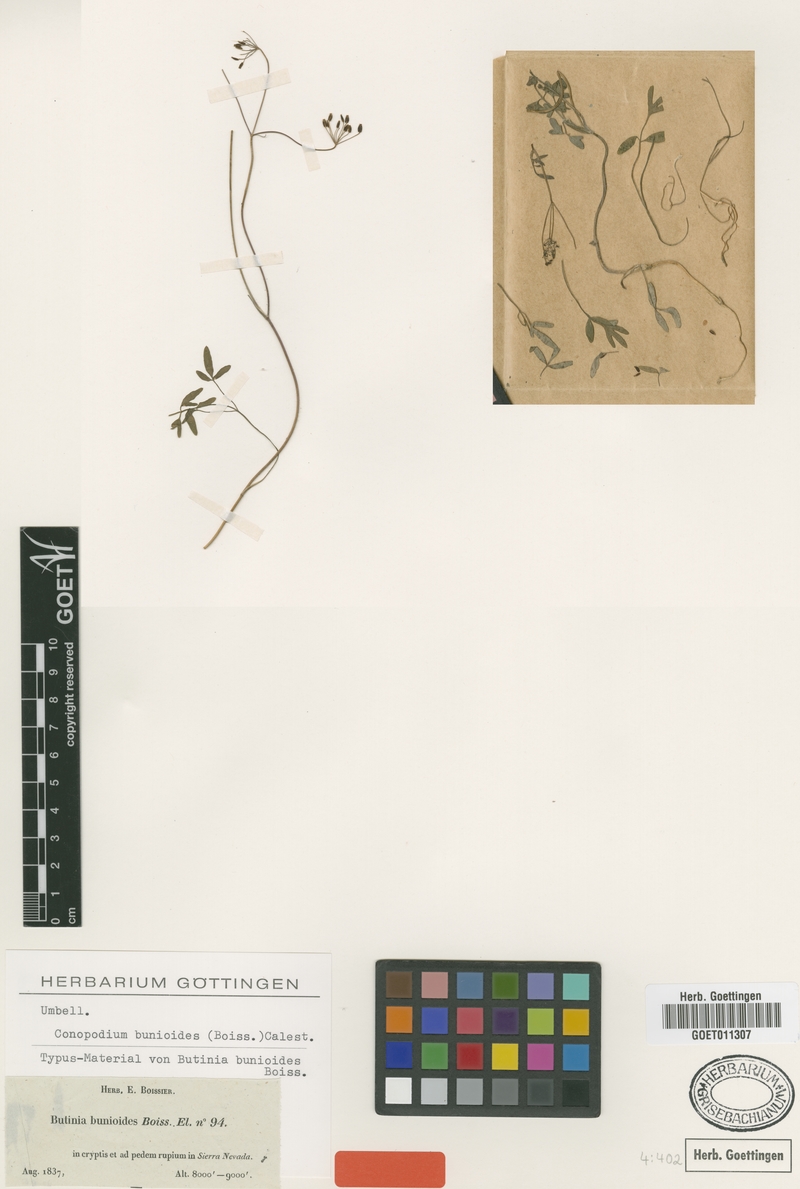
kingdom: Plantae
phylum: Tracheophyta
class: Magnoliopsida
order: Apiales
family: Apiaceae
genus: Conopodium
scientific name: Conopodium bunioides
